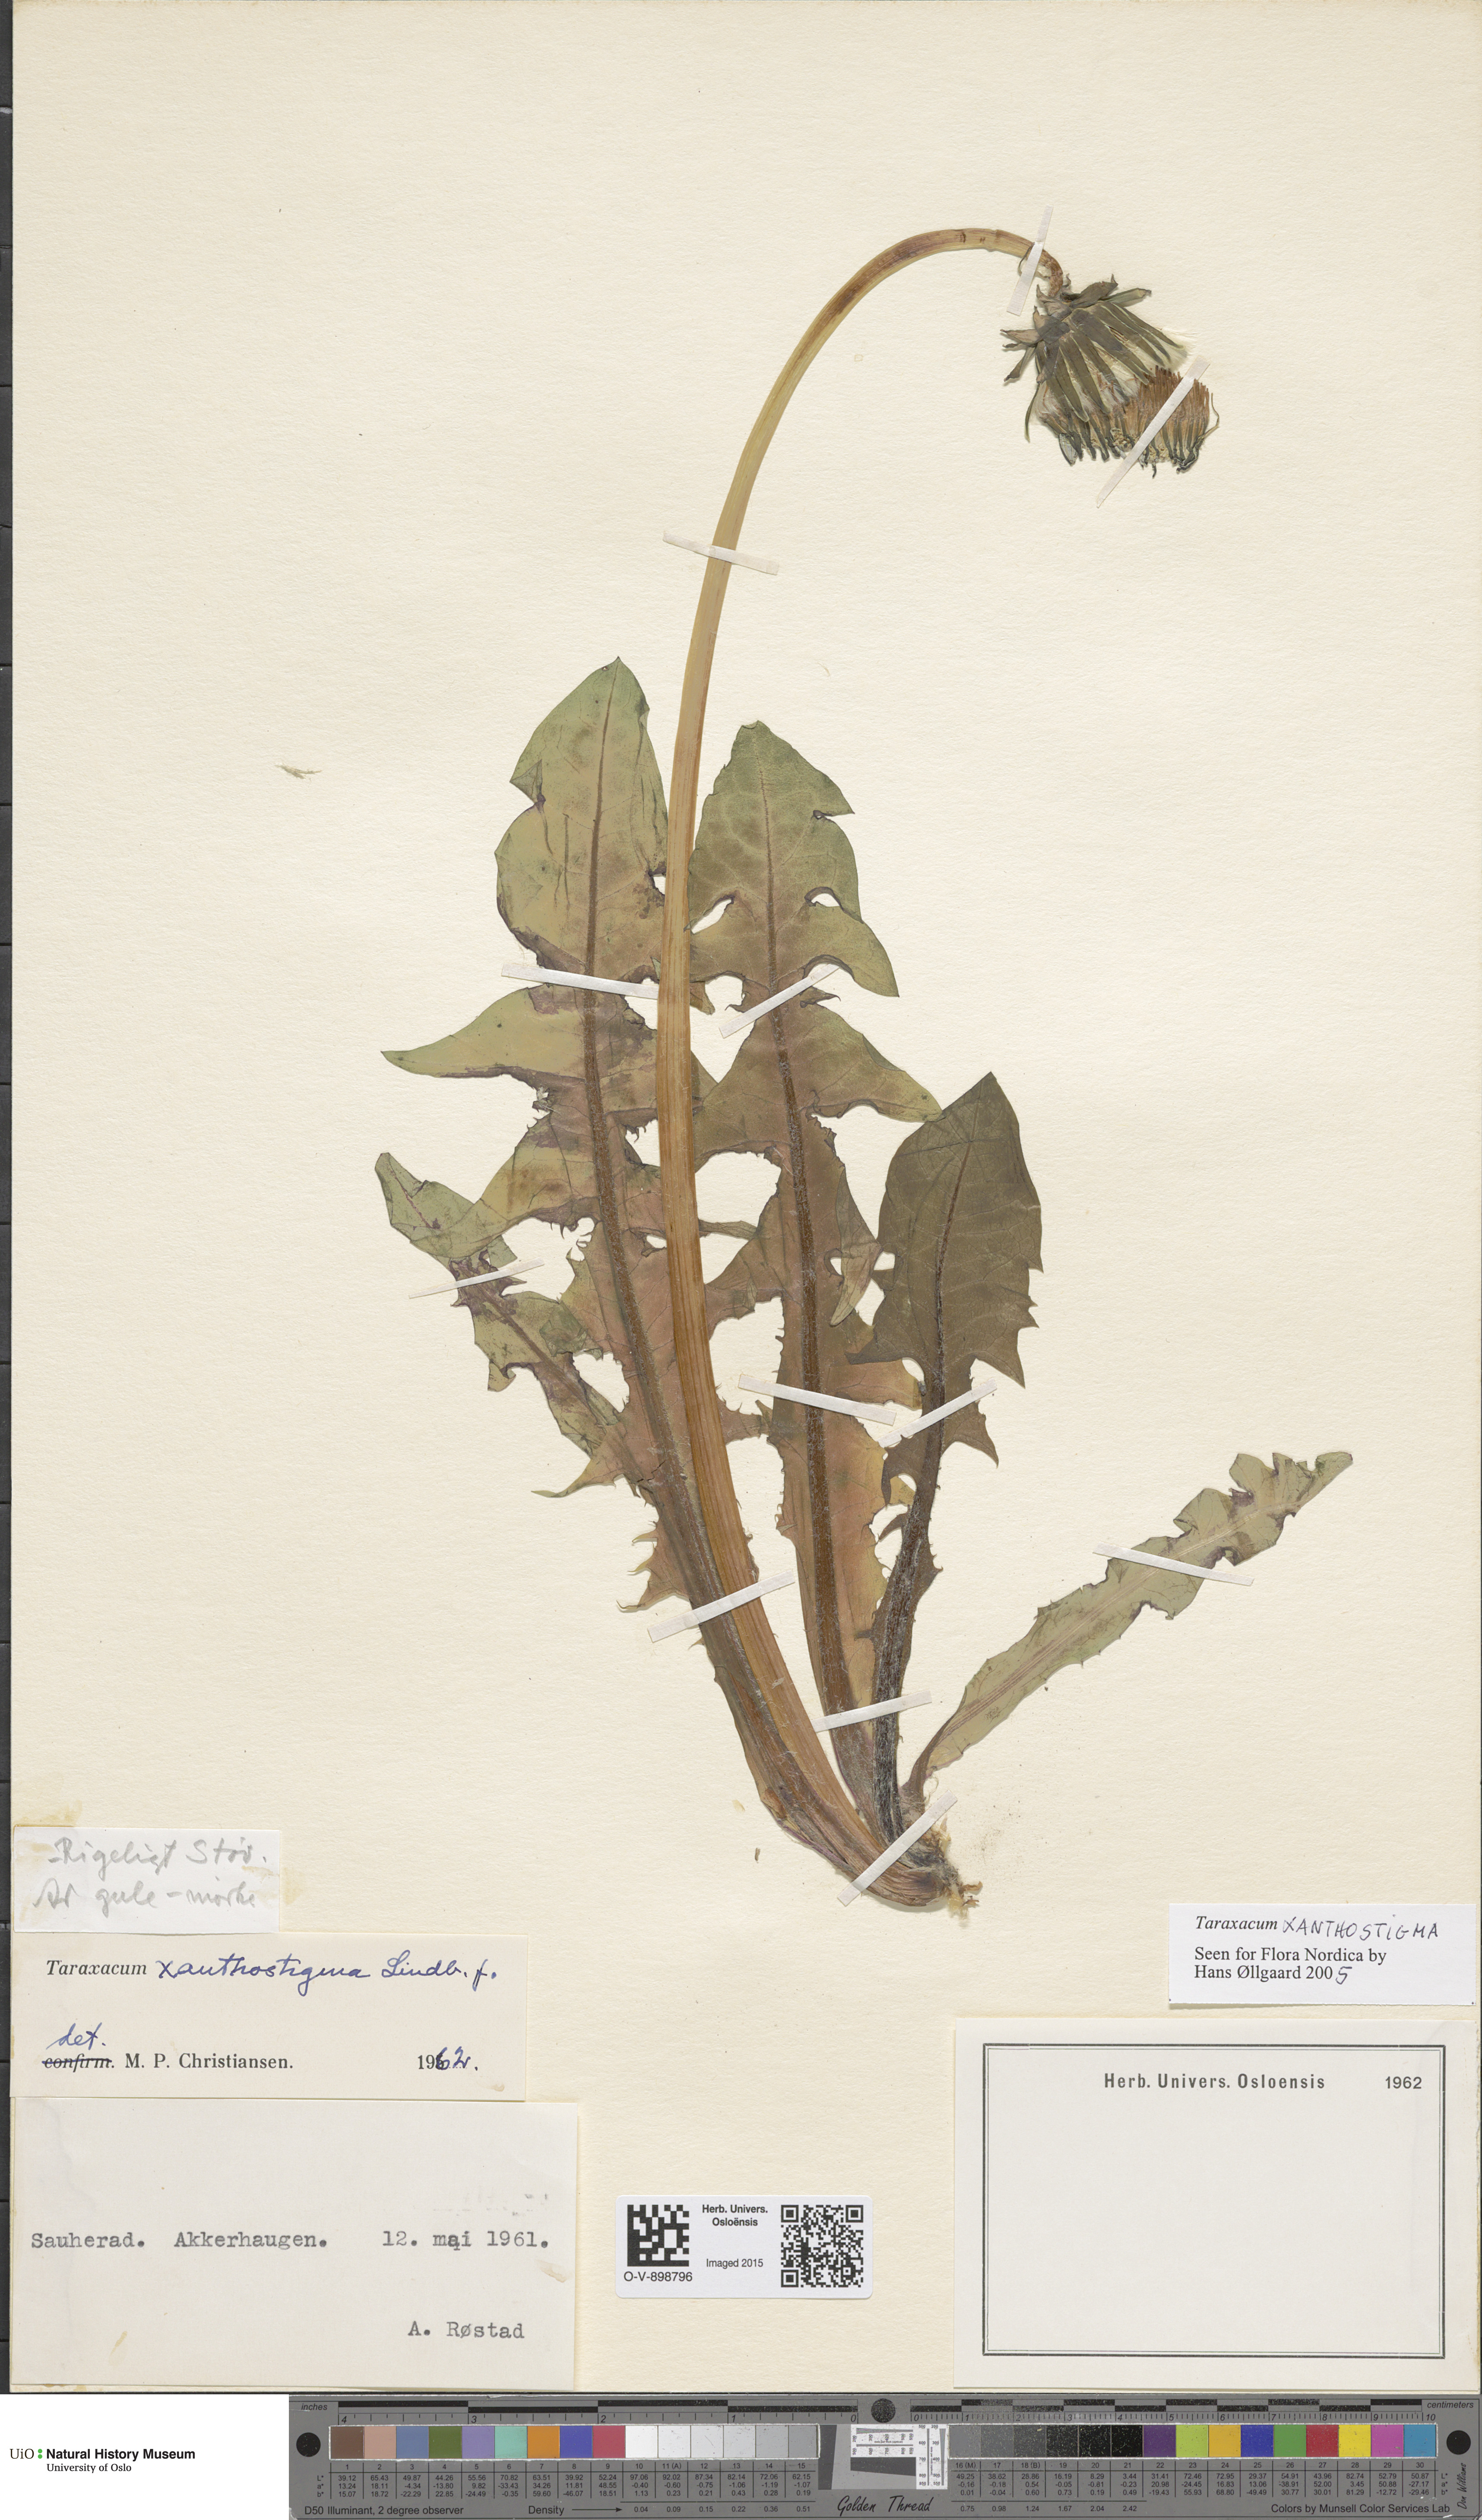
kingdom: Plantae
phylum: Tracheophyta
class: Magnoliopsida
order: Asterales
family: Asteraceae
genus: Taraxacum
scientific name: Taraxacum xanthostigma
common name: Ochre-styled dandelion
